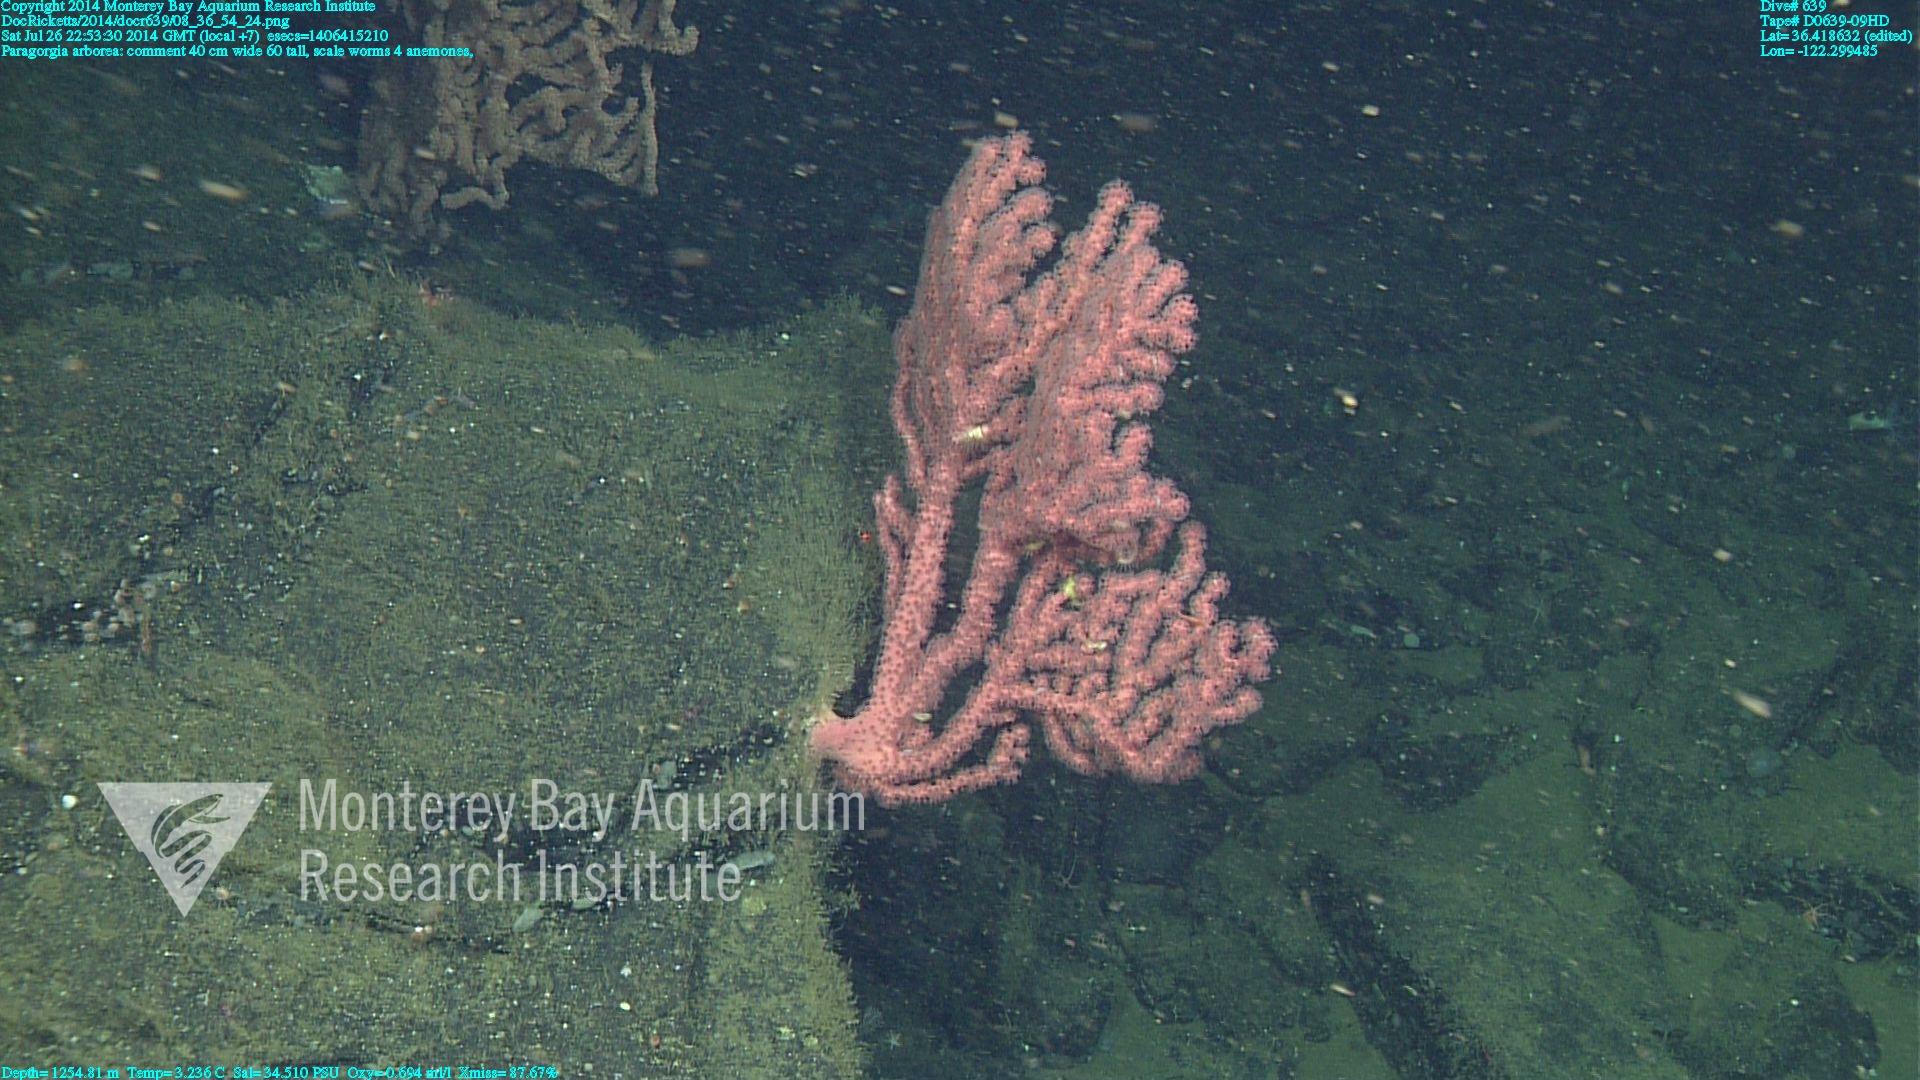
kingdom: Animalia
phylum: Cnidaria
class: Anthozoa
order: Scleralcyonacea
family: Coralliidae
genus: Paragorgia
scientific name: Paragorgia arborea
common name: Bubble gum coral
